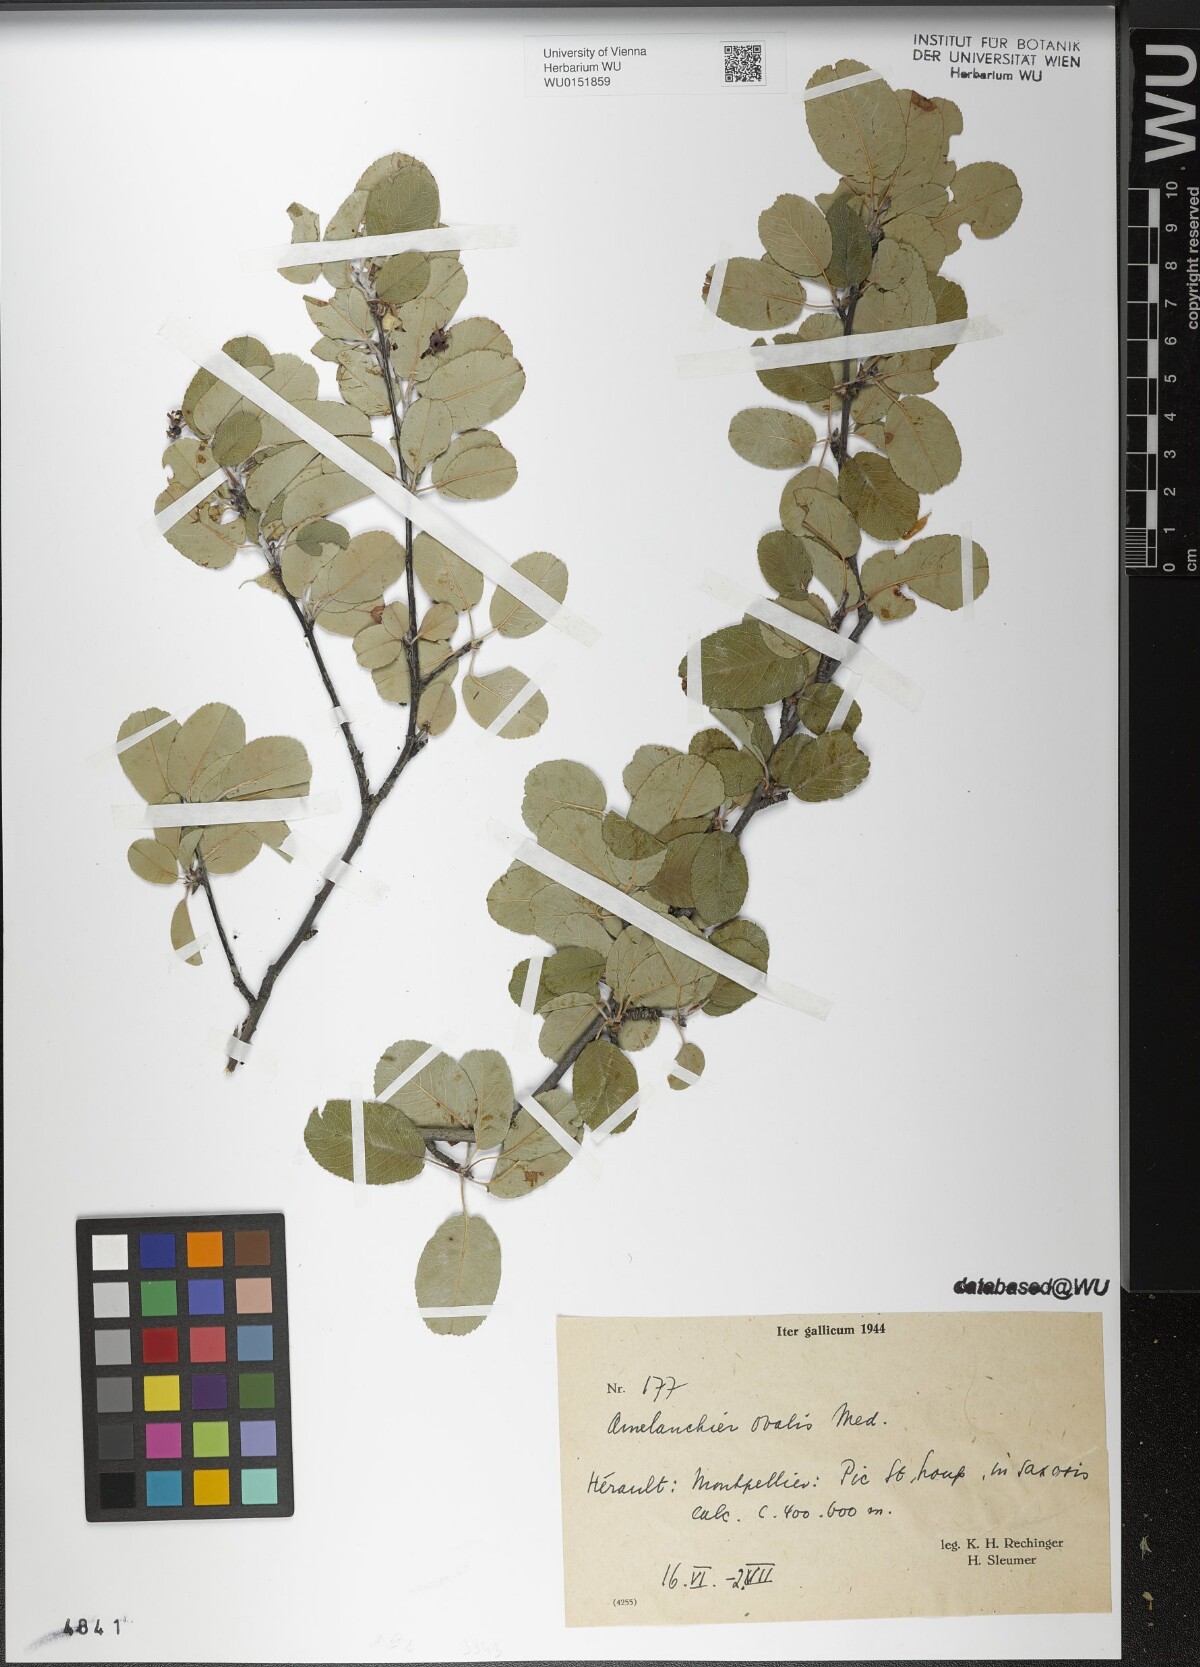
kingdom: Plantae
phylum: Tracheophyta
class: Magnoliopsida
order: Rosales
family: Rosaceae
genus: Amelanchier
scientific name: Amelanchier ovalis
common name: Serviceberry
